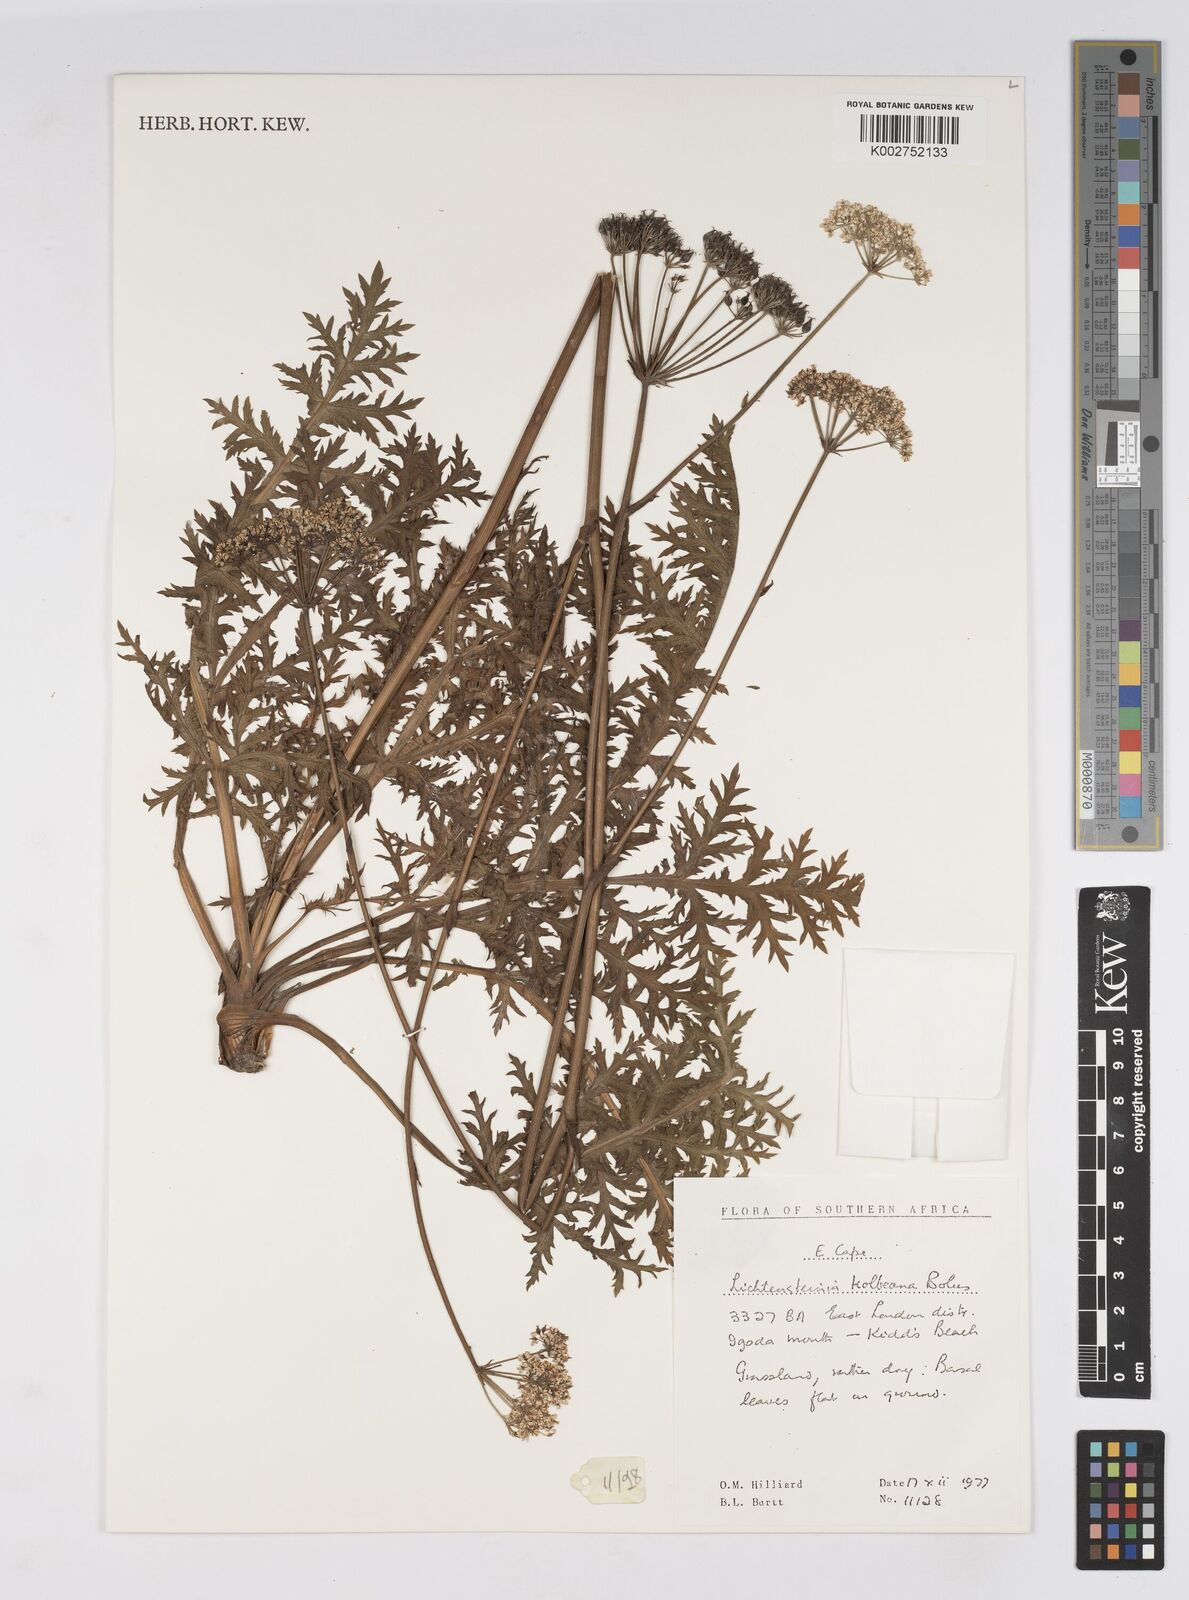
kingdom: Plantae
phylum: Tracheophyta
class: Magnoliopsida
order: Apiales
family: Apiaceae
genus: Lichtensteinia
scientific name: Lichtensteinia interrupta
